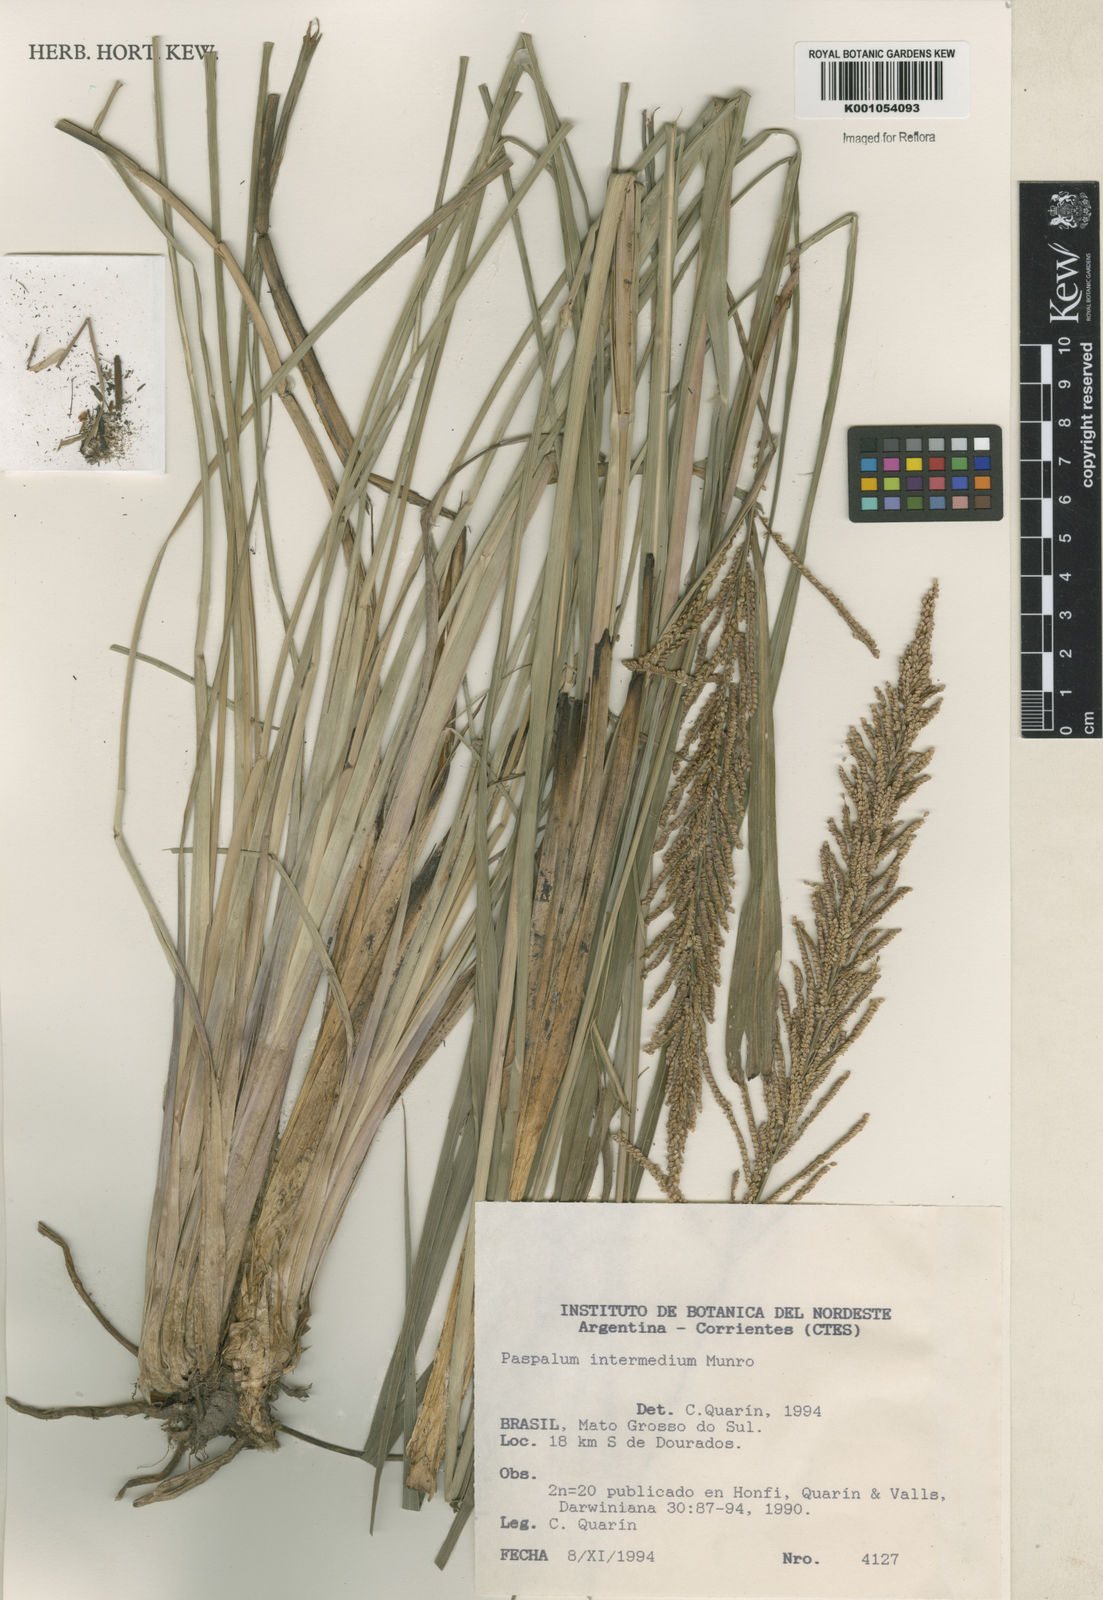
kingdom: Plantae
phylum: Tracheophyta
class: Liliopsida
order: Poales
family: Poaceae
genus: Paspalum
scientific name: Paspalum intermedium
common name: Intermediate paspalum
